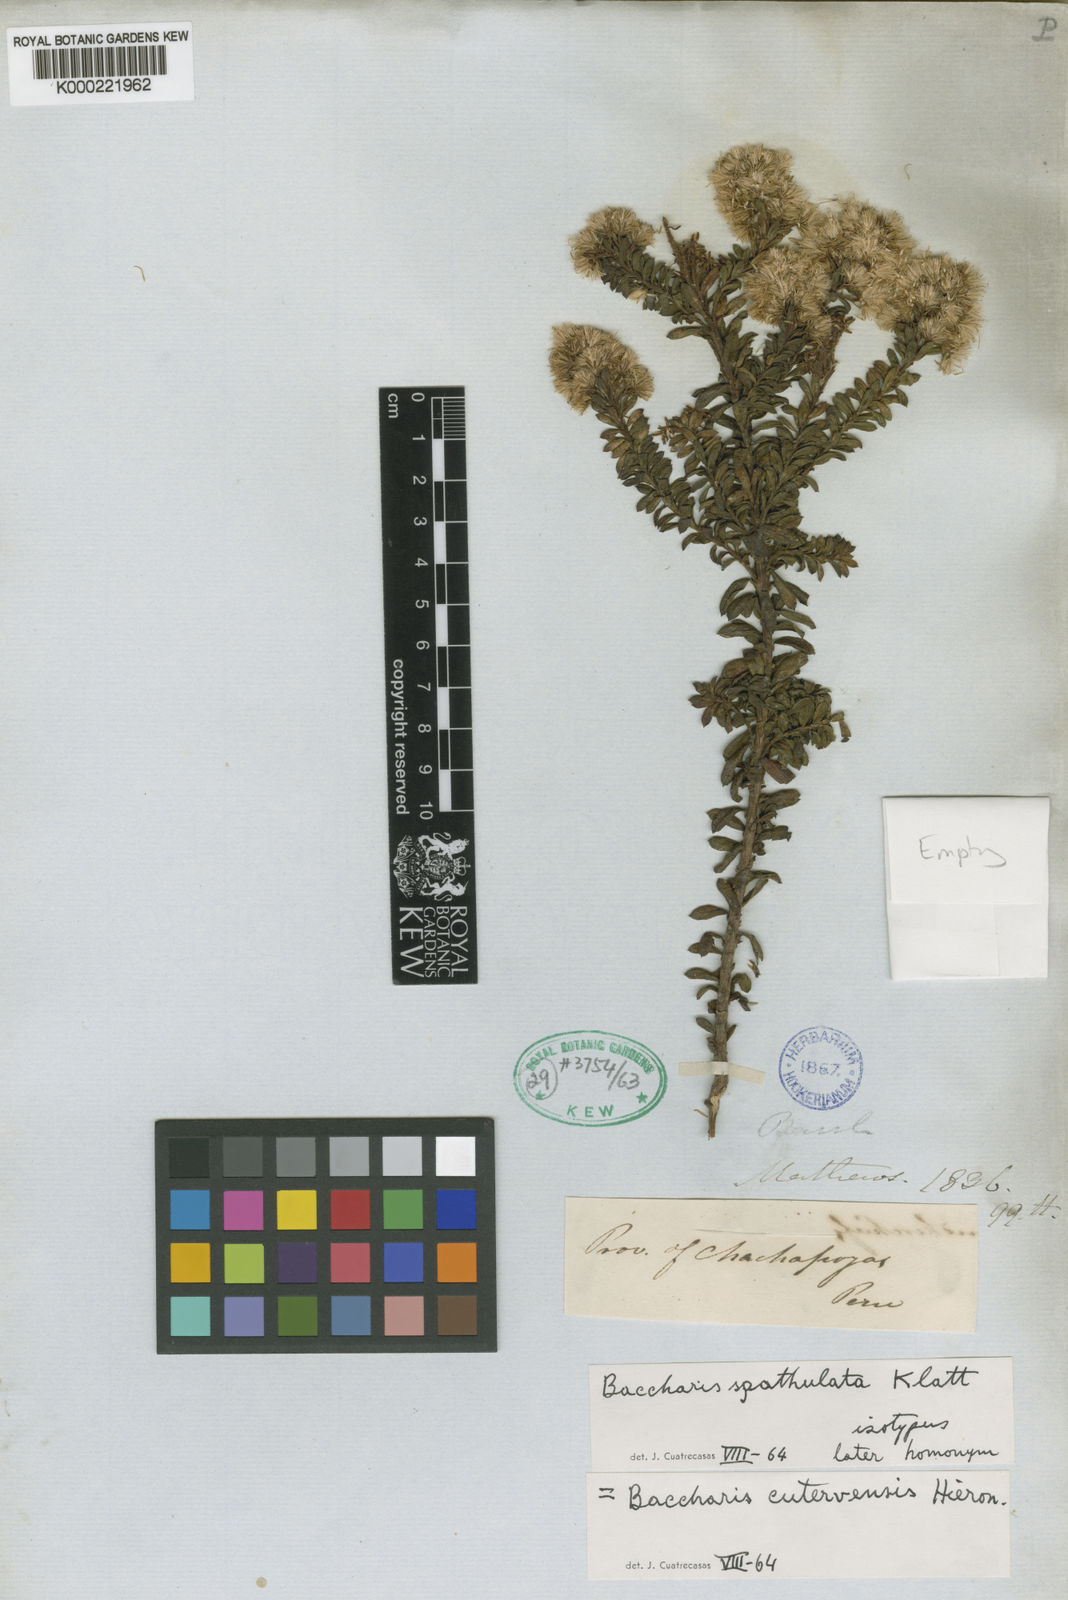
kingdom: Plantae
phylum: Tracheophyta
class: Magnoliopsida
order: Asterales
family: Asteraceae
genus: Baccharis
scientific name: Baccharis cutervensis
